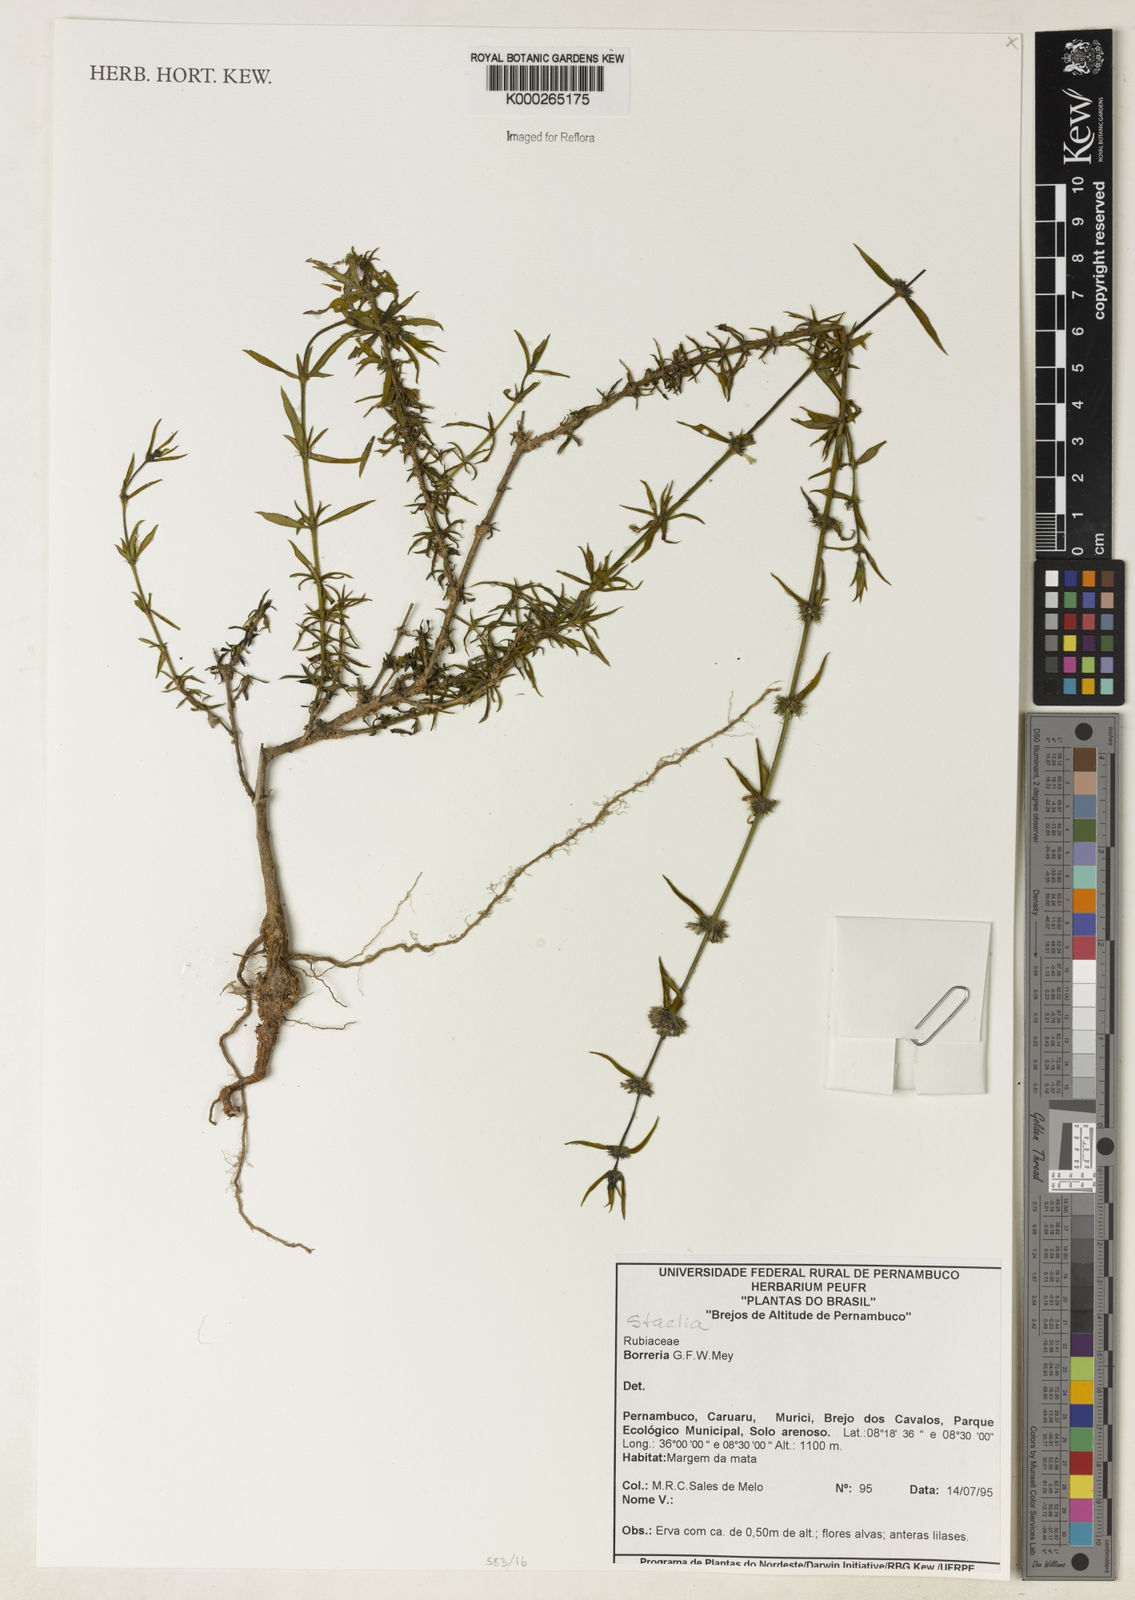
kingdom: Plantae
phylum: Tracheophyta
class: Magnoliopsida
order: Gentianales
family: Rubiaceae
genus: Staelia
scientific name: Staelia
